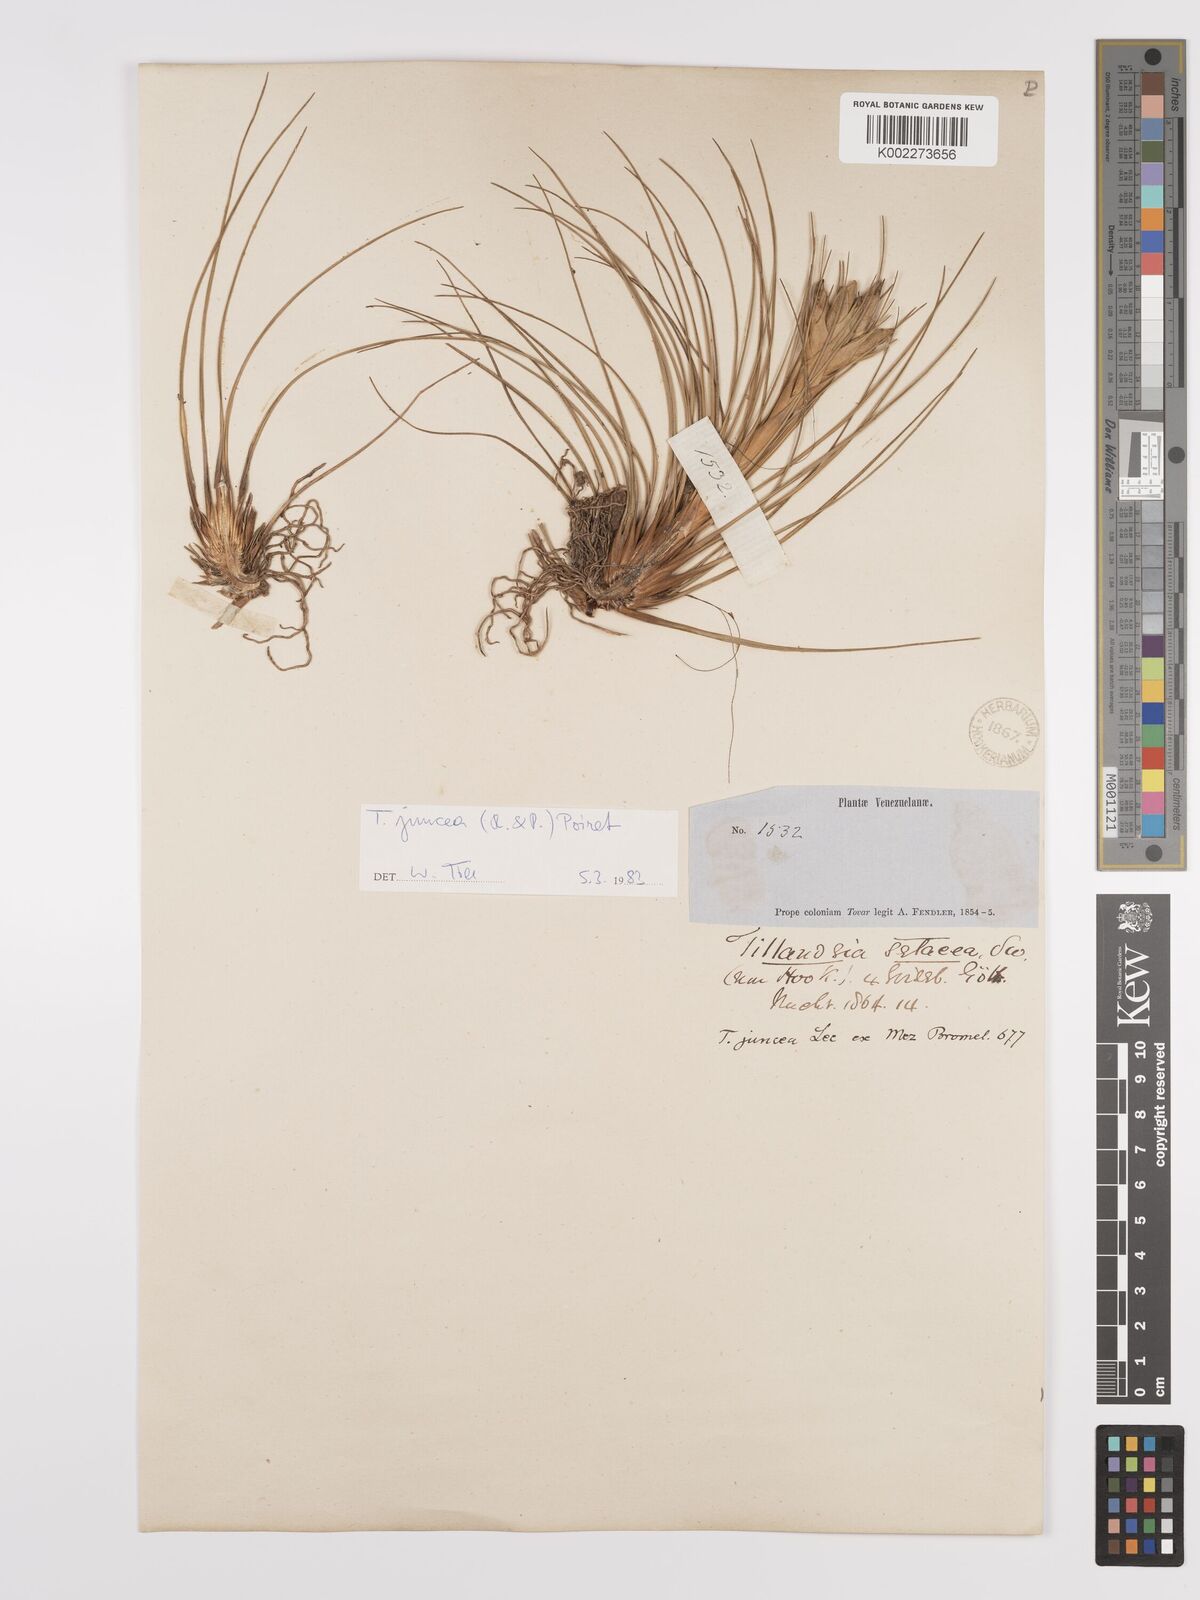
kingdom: Plantae
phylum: Tracheophyta
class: Liliopsida
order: Poales
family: Bromeliaceae
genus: Tillandsia
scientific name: Tillandsia juncea
